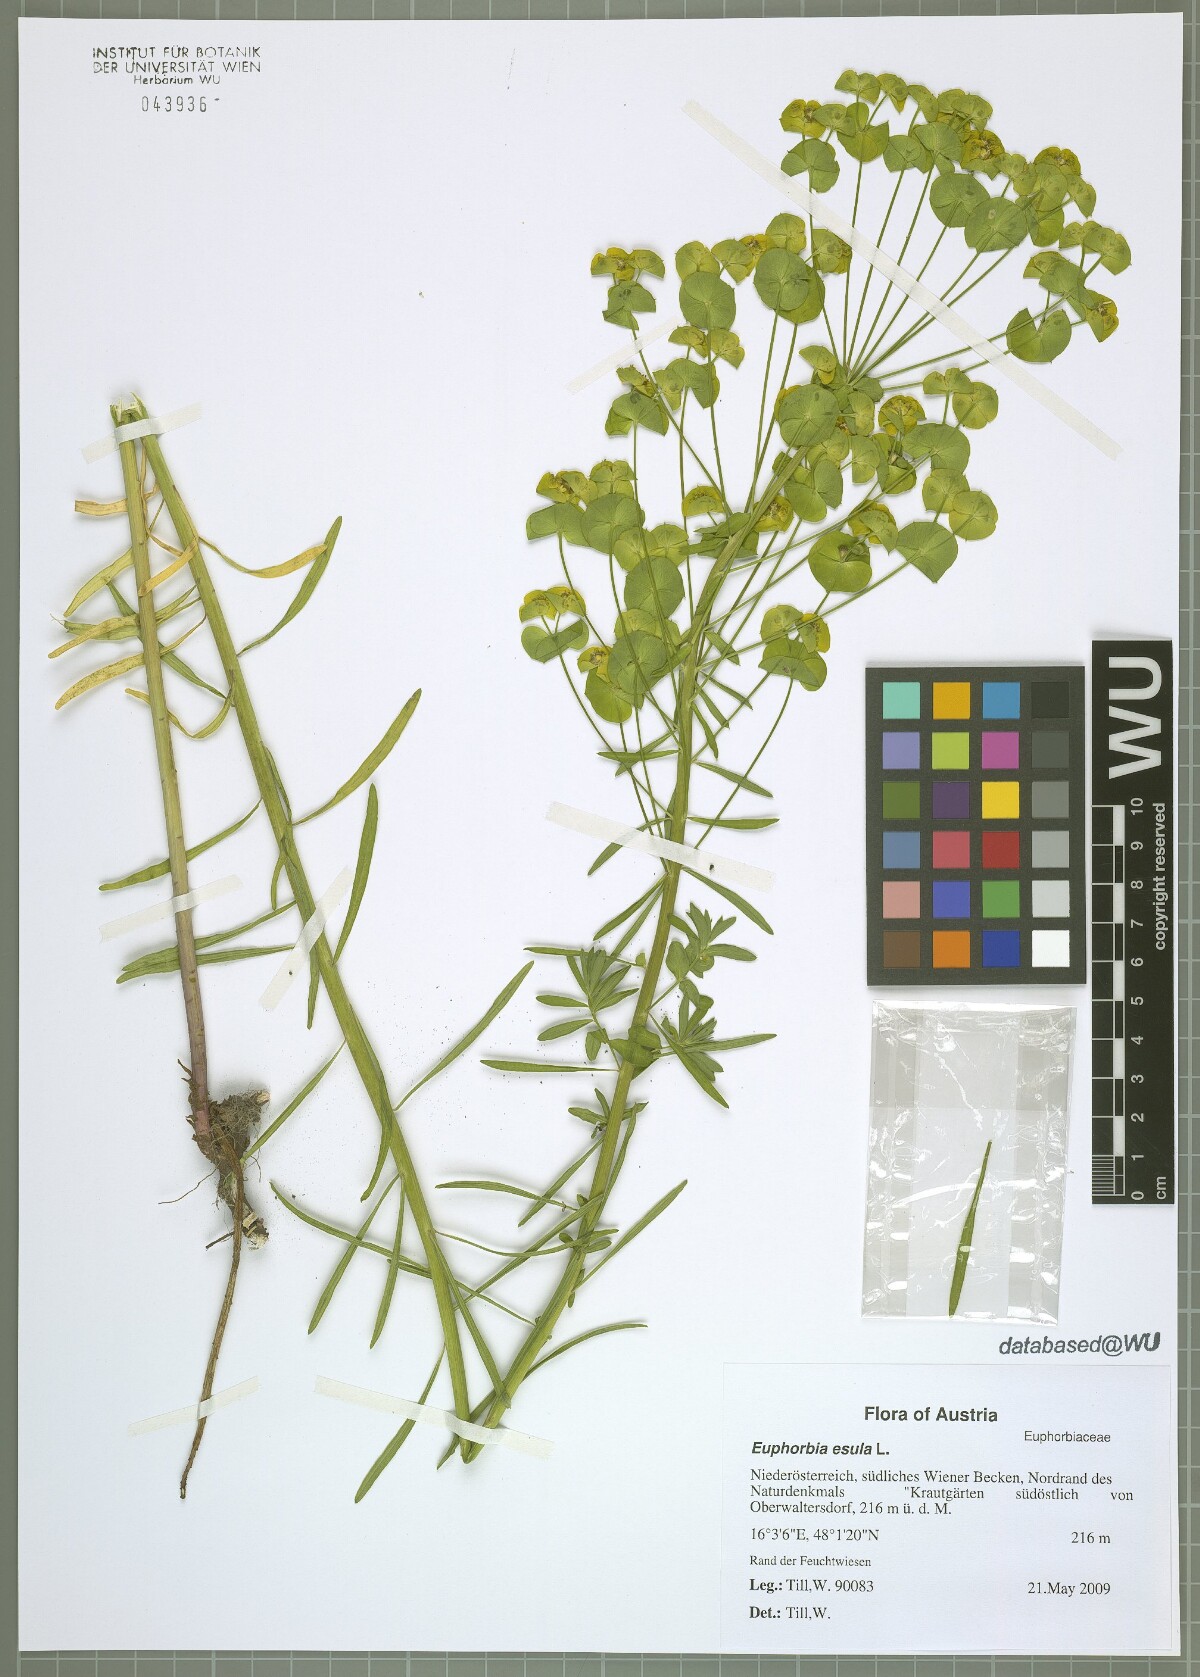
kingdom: Plantae
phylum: Tracheophyta
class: Magnoliopsida
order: Malpighiales
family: Euphorbiaceae
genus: Euphorbia
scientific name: Euphorbia esula
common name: Leafy spurge
